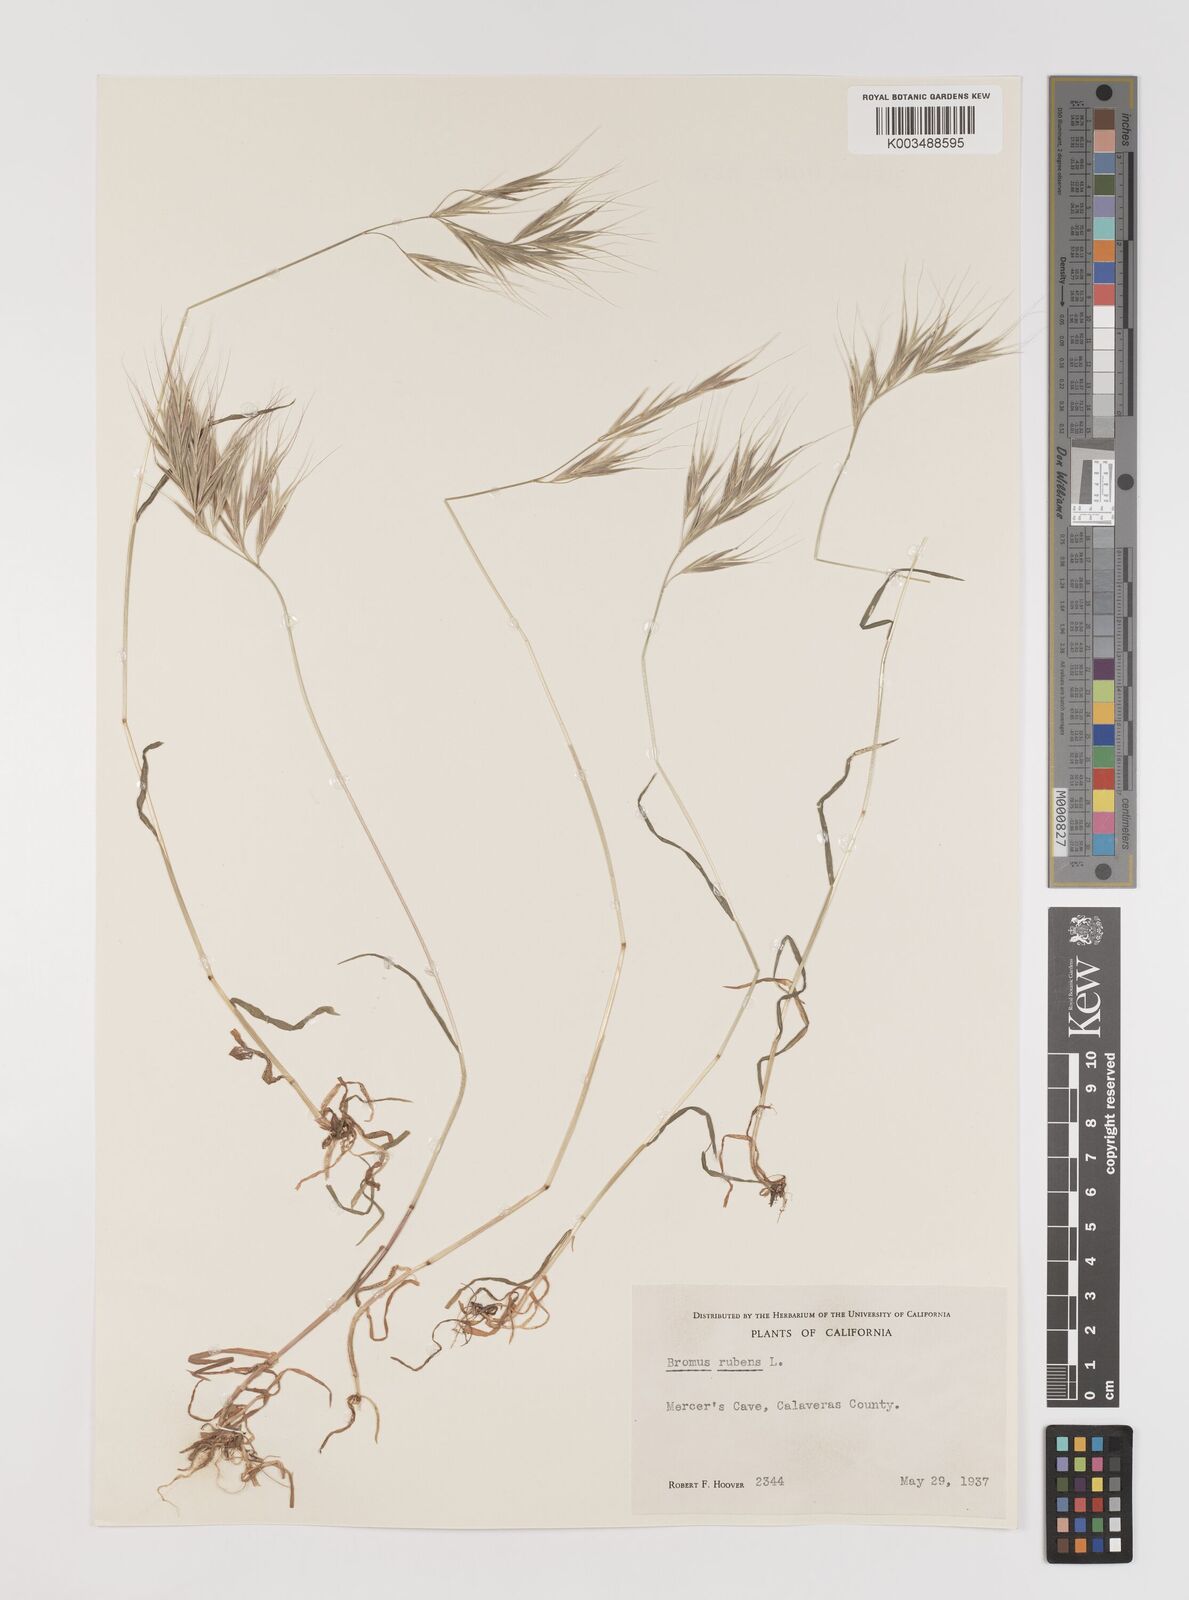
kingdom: Plantae
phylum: Tracheophyta
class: Liliopsida
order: Poales
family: Poaceae
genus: Bromus
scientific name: Bromus rubens
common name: Red brome
